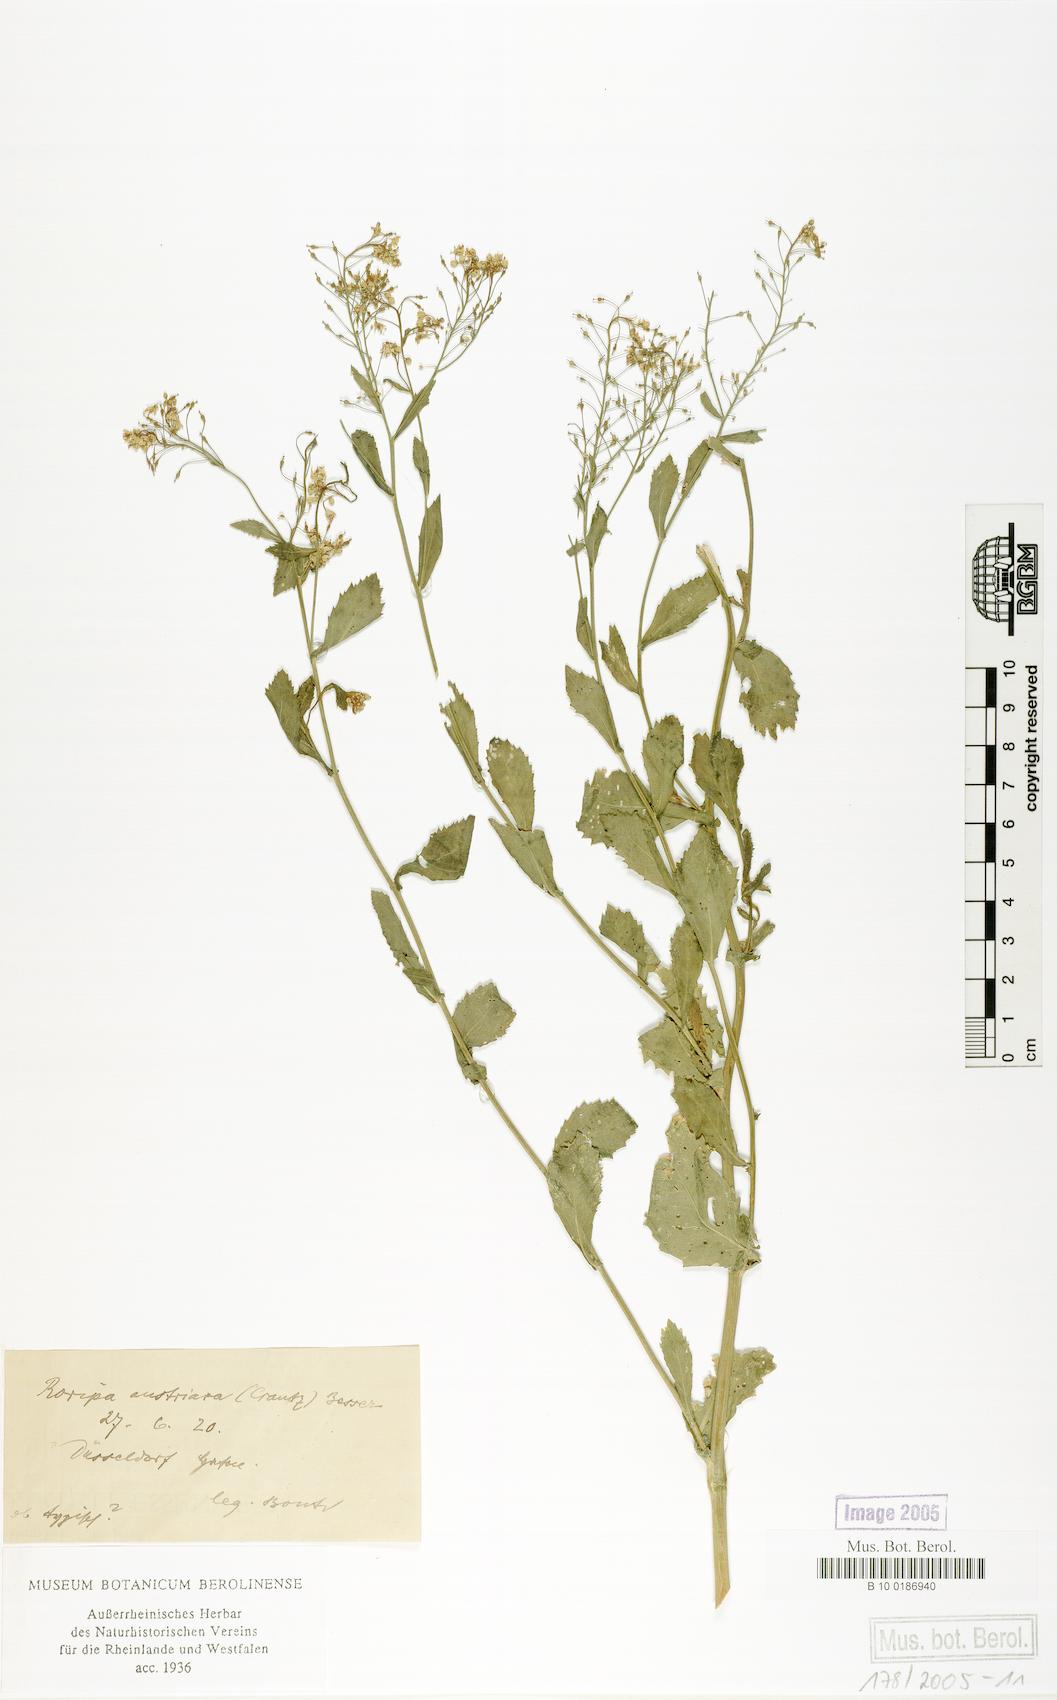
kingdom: Plantae
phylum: Tracheophyta
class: Magnoliopsida
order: Brassicales
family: Brassicaceae
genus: Rorippa
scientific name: Rorippa austriaca
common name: Austrian yellow-cress
